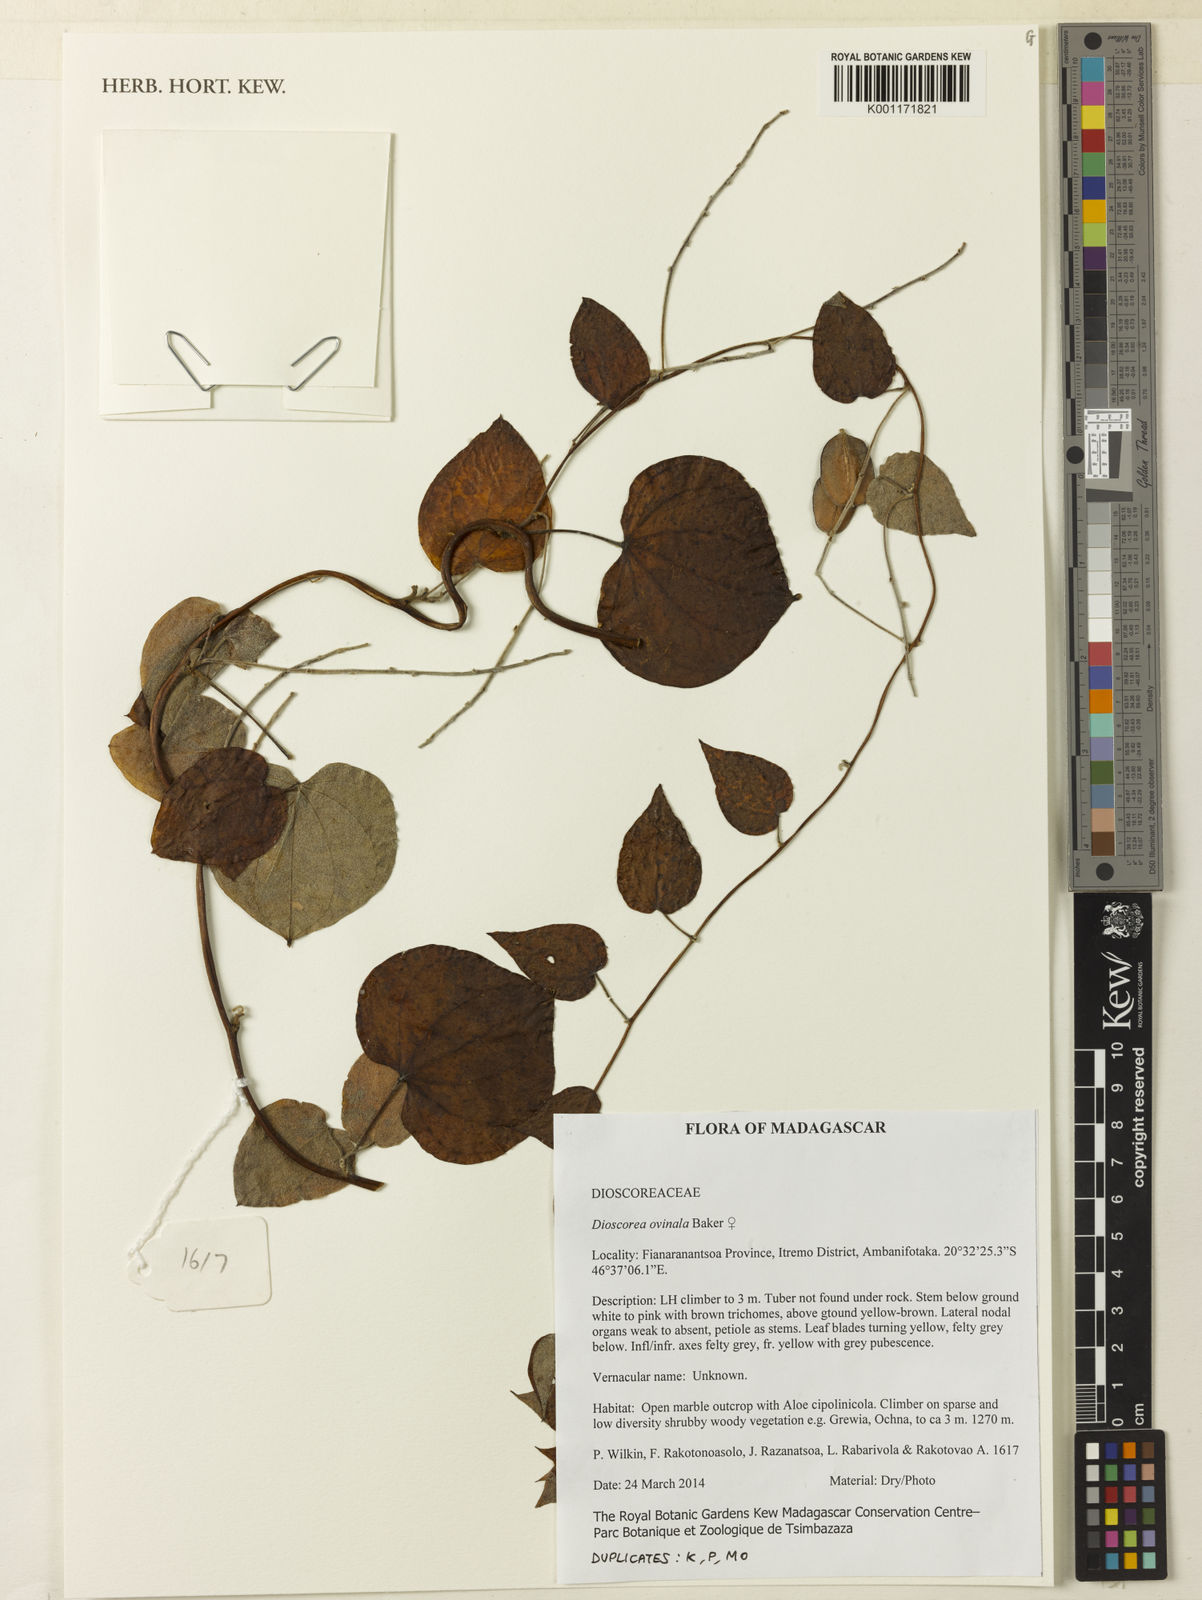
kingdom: Plantae
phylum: Tracheophyta
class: Liliopsida
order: Dioscoreales
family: Dioscoreaceae
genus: Dioscorea
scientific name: Dioscorea ovinala
